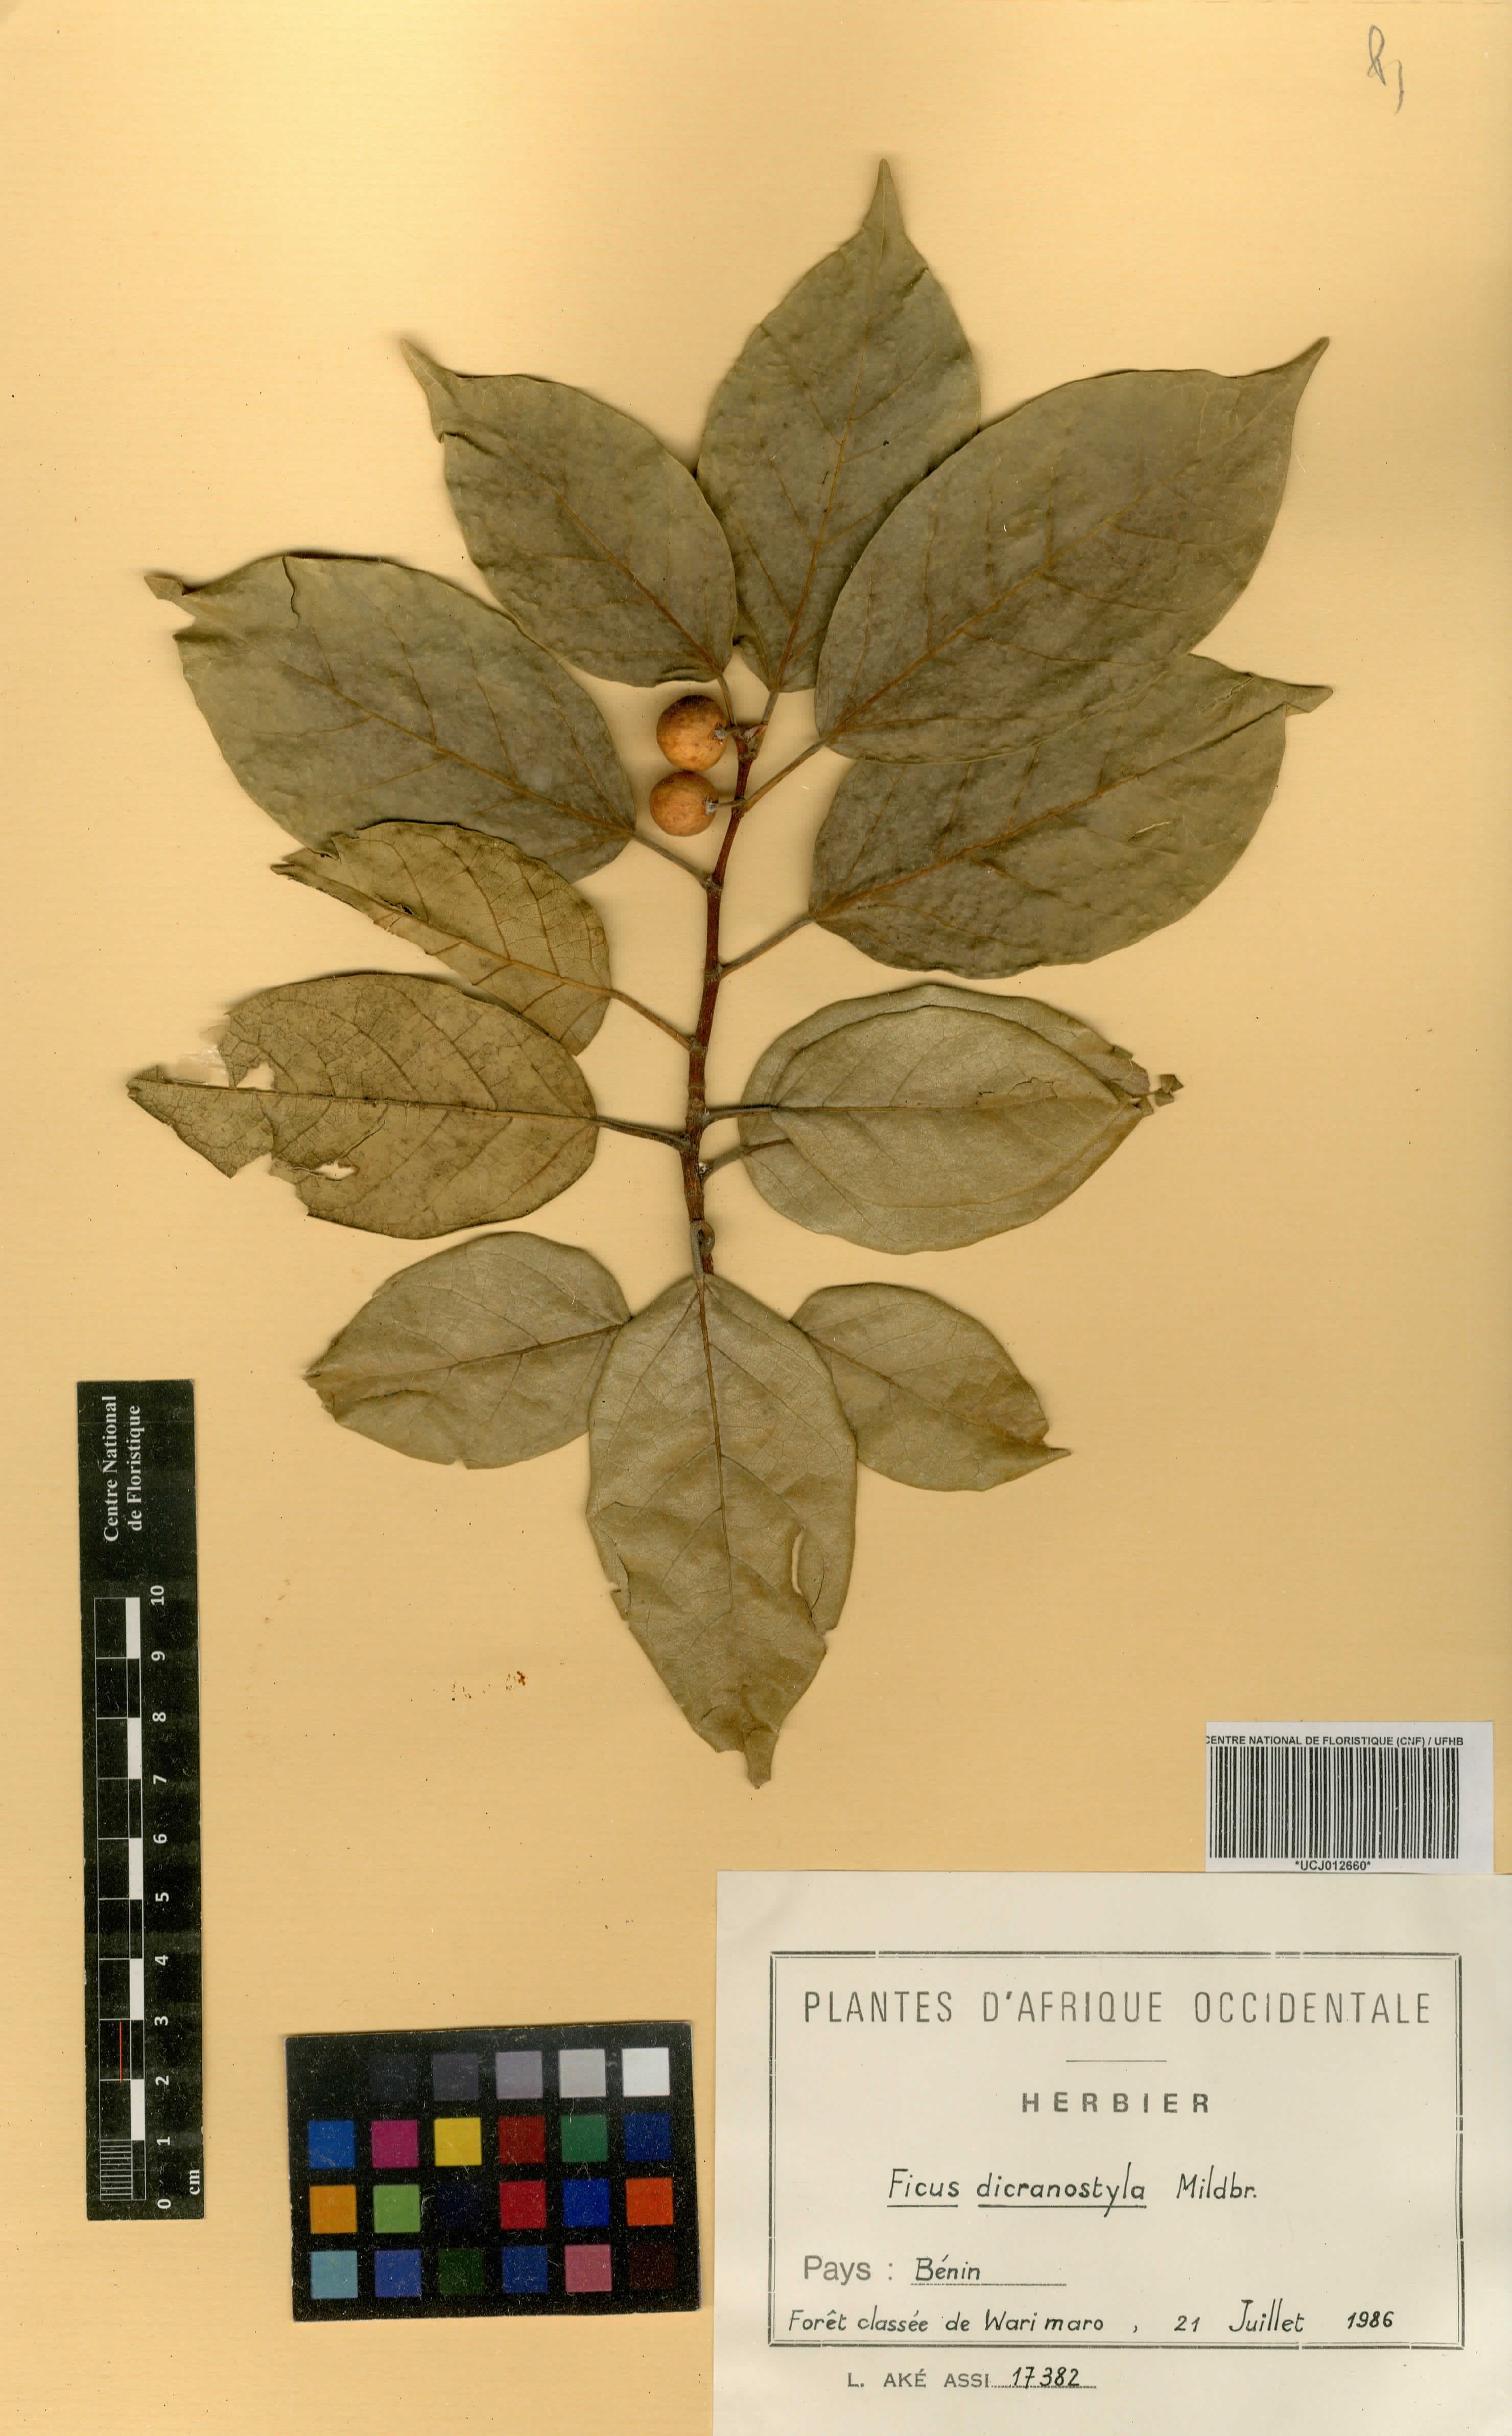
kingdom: Plantae
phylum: Tracheophyta
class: Magnoliopsida
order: Rosales
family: Moraceae
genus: Ficus
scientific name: Ficus dicranostyla
